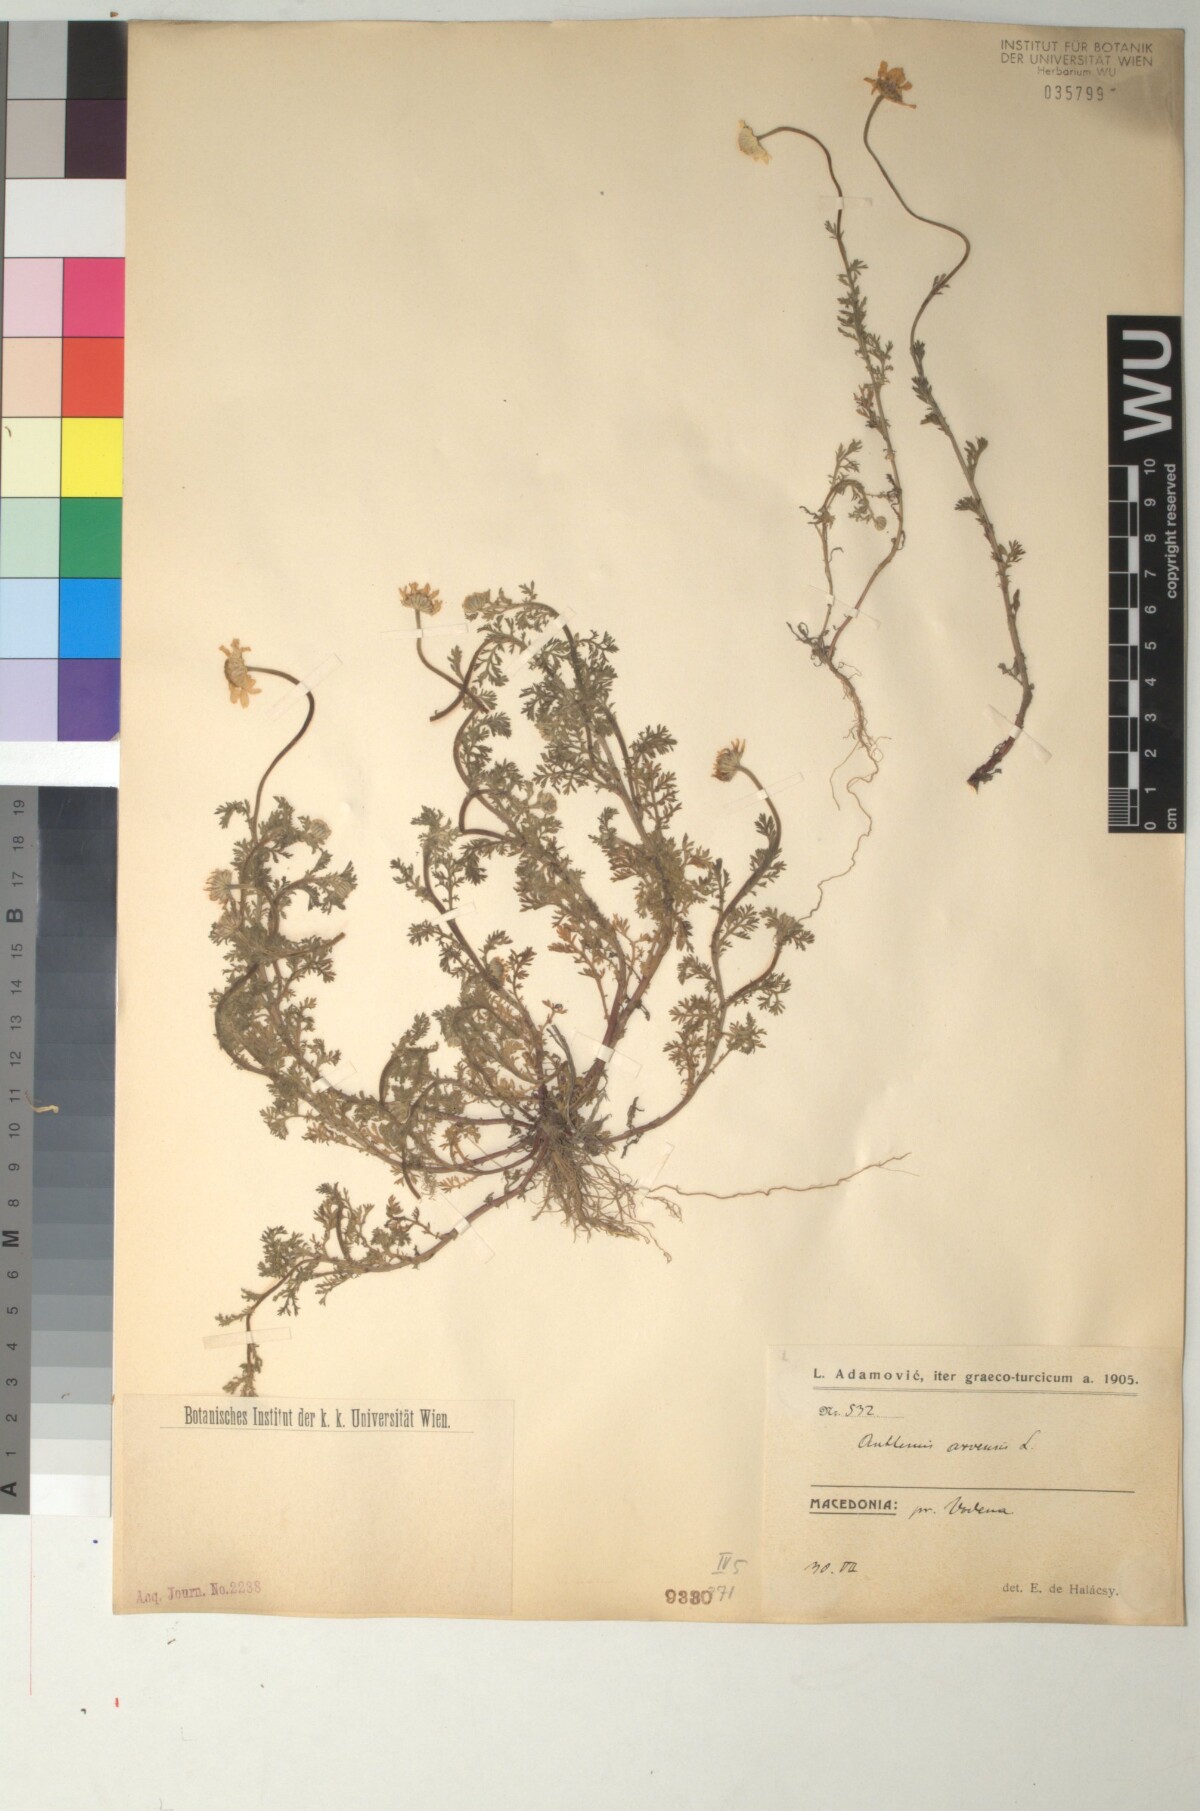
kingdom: Plantae
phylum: Tracheophyta
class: Magnoliopsida
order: Asterales
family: Asteraceae
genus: Anthemis
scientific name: Anthemis arvensis
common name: Corn chamomile
